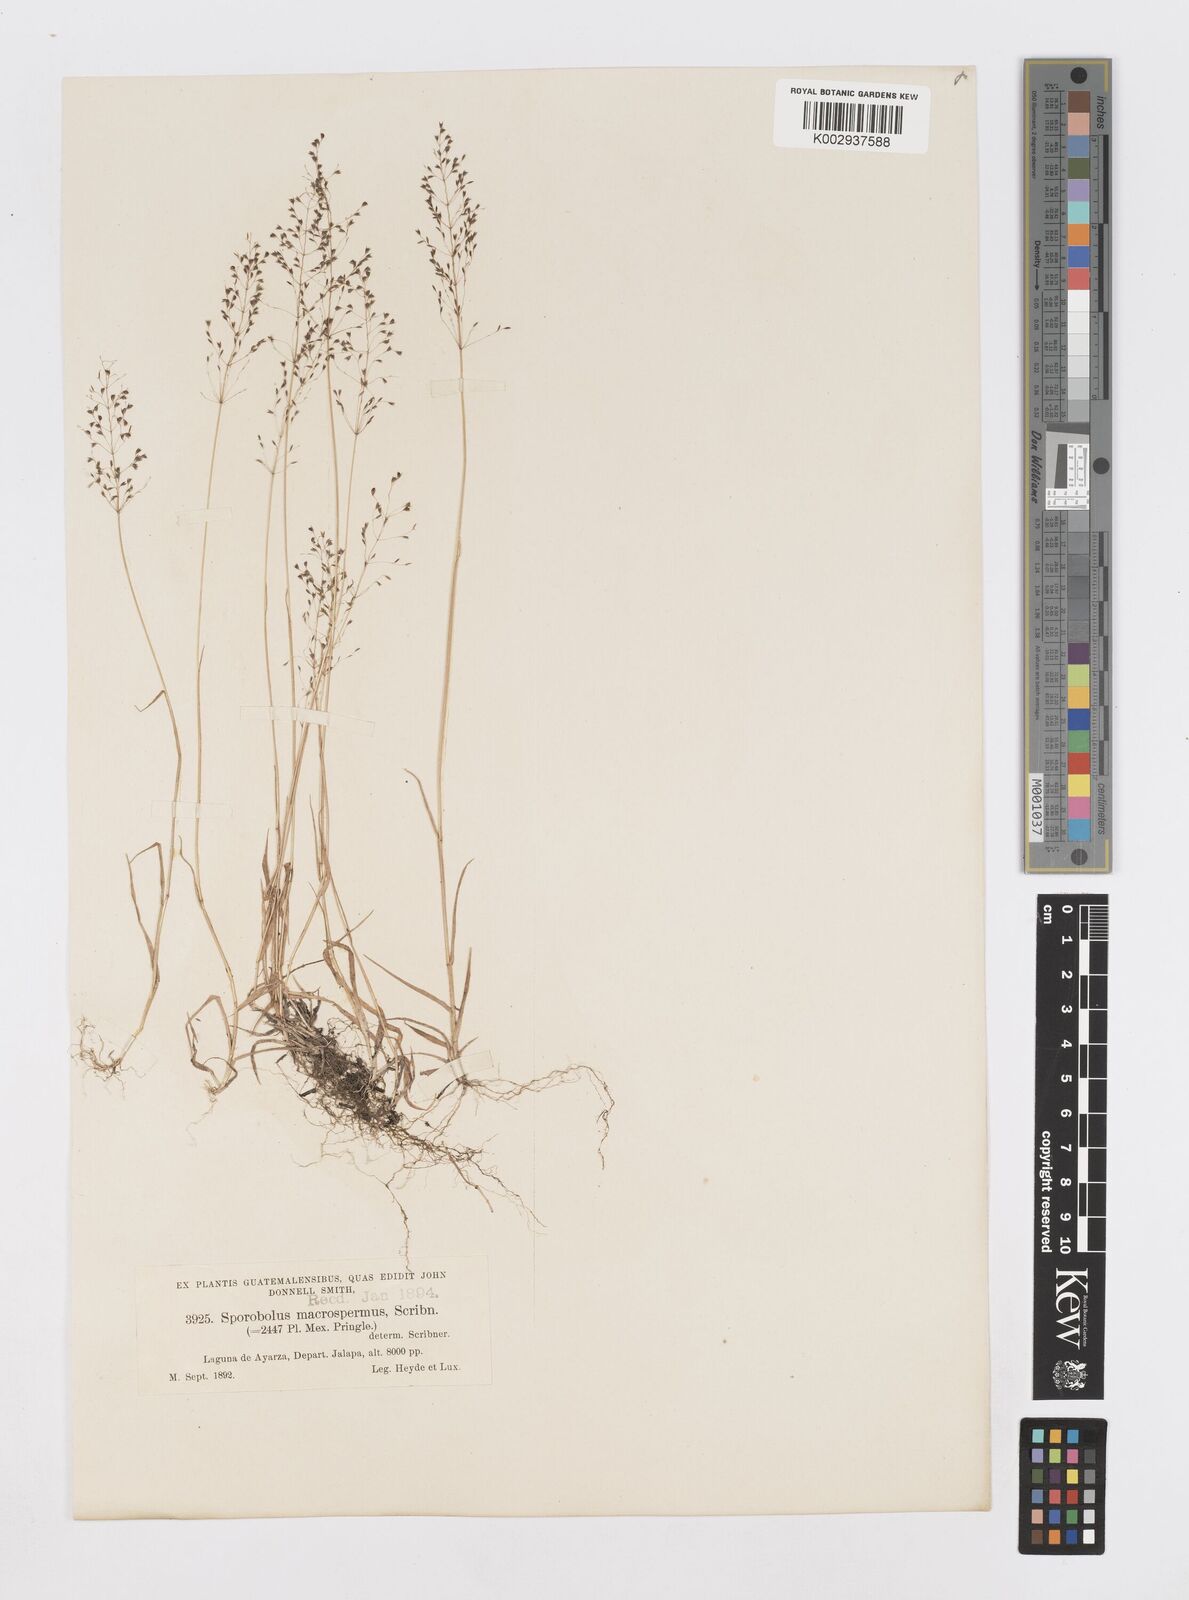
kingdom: Plantae
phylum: Tracheophyta
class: Liliopsida
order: Poales
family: Poaceae
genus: Sporobolus
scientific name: Sporobolus macrospermus
